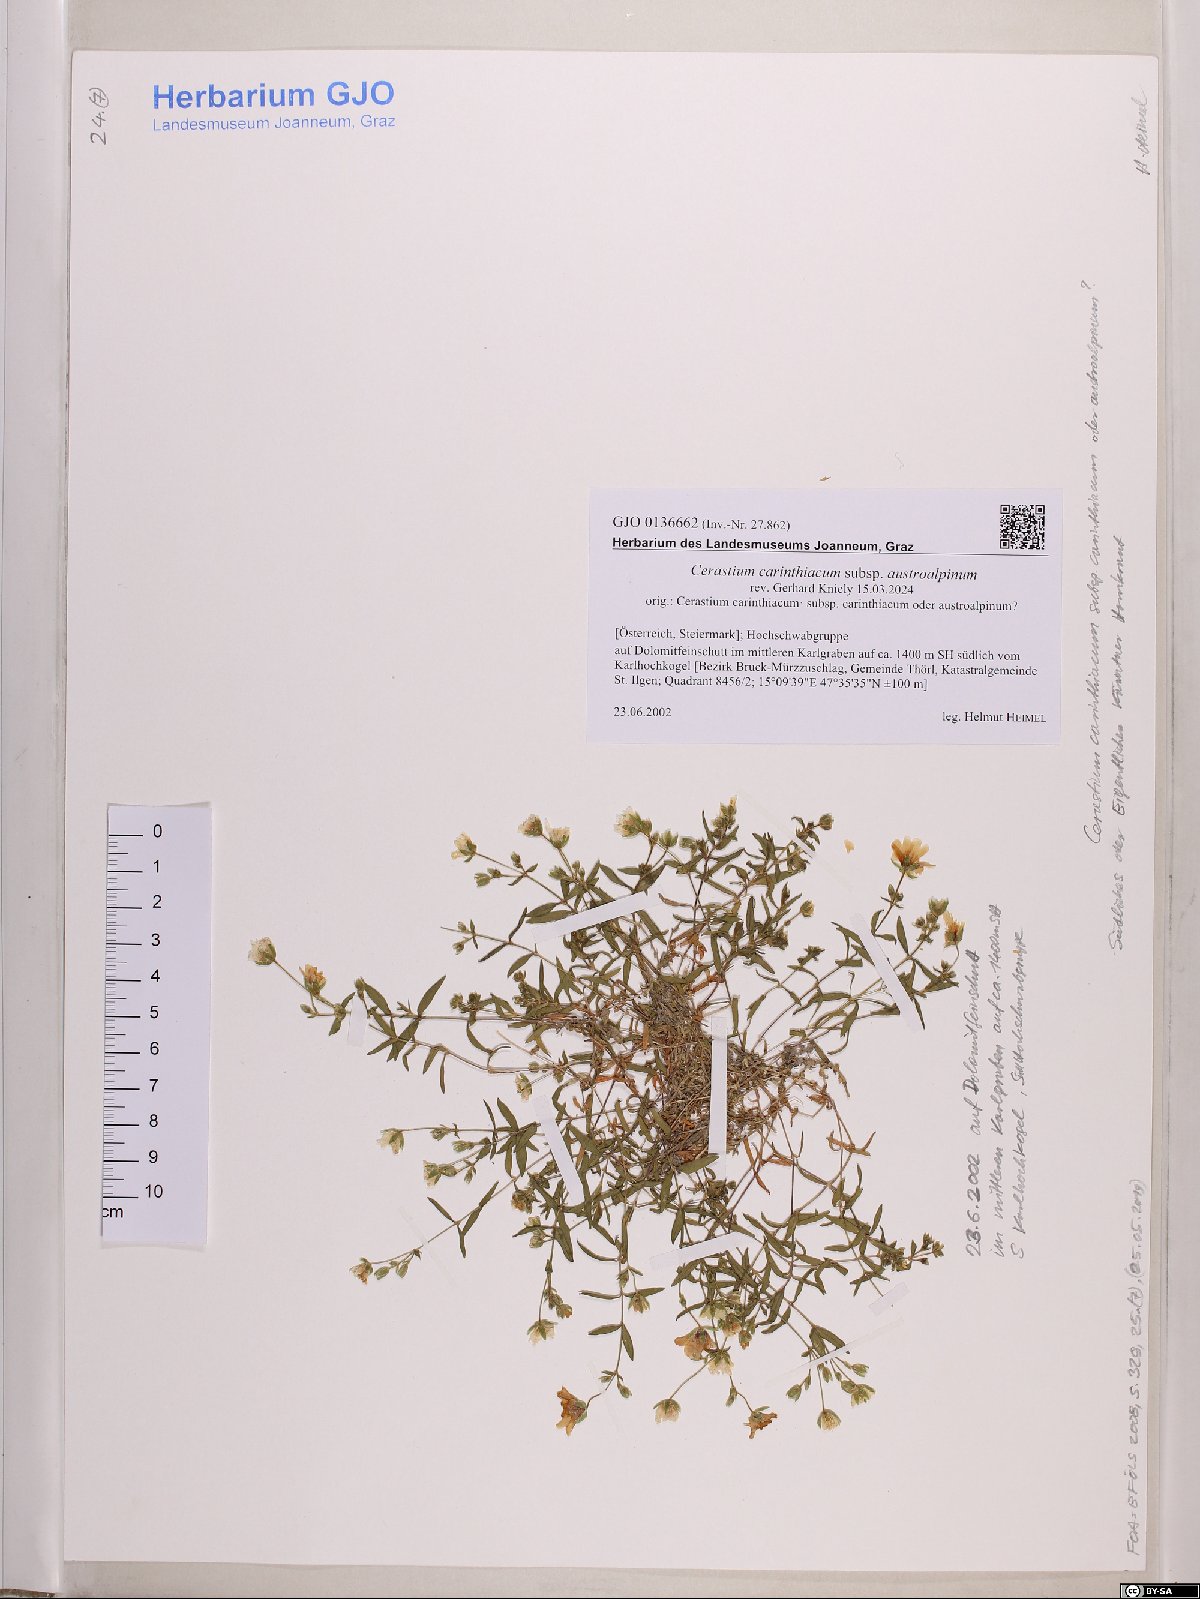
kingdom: Plantae
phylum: Tracheophyta
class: Magnoliopsida
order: Caryophyllales
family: Caryophyllaceae
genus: Cerastium
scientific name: Cerastium carinthiacum
